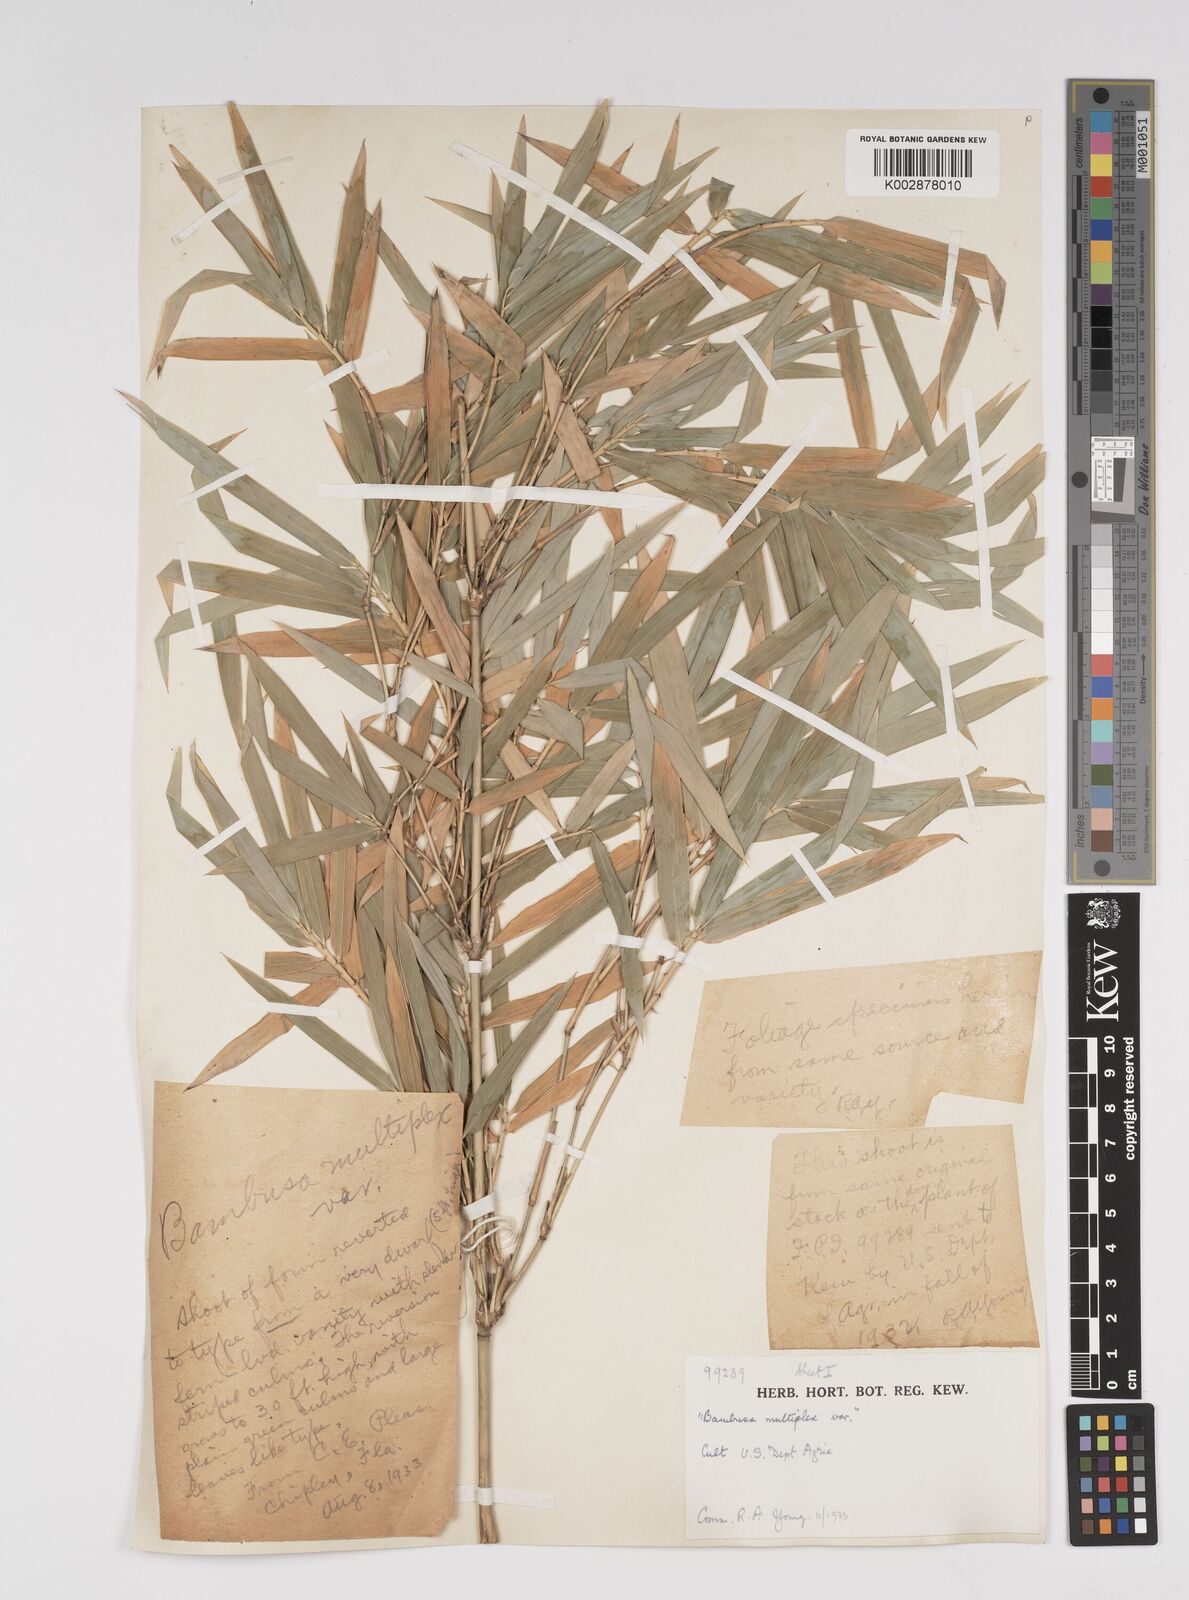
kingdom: Plantae
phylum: Tracheophyta
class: Liliopsida
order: Poales
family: Poaceae
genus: Bambusa
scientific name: Bambusa
